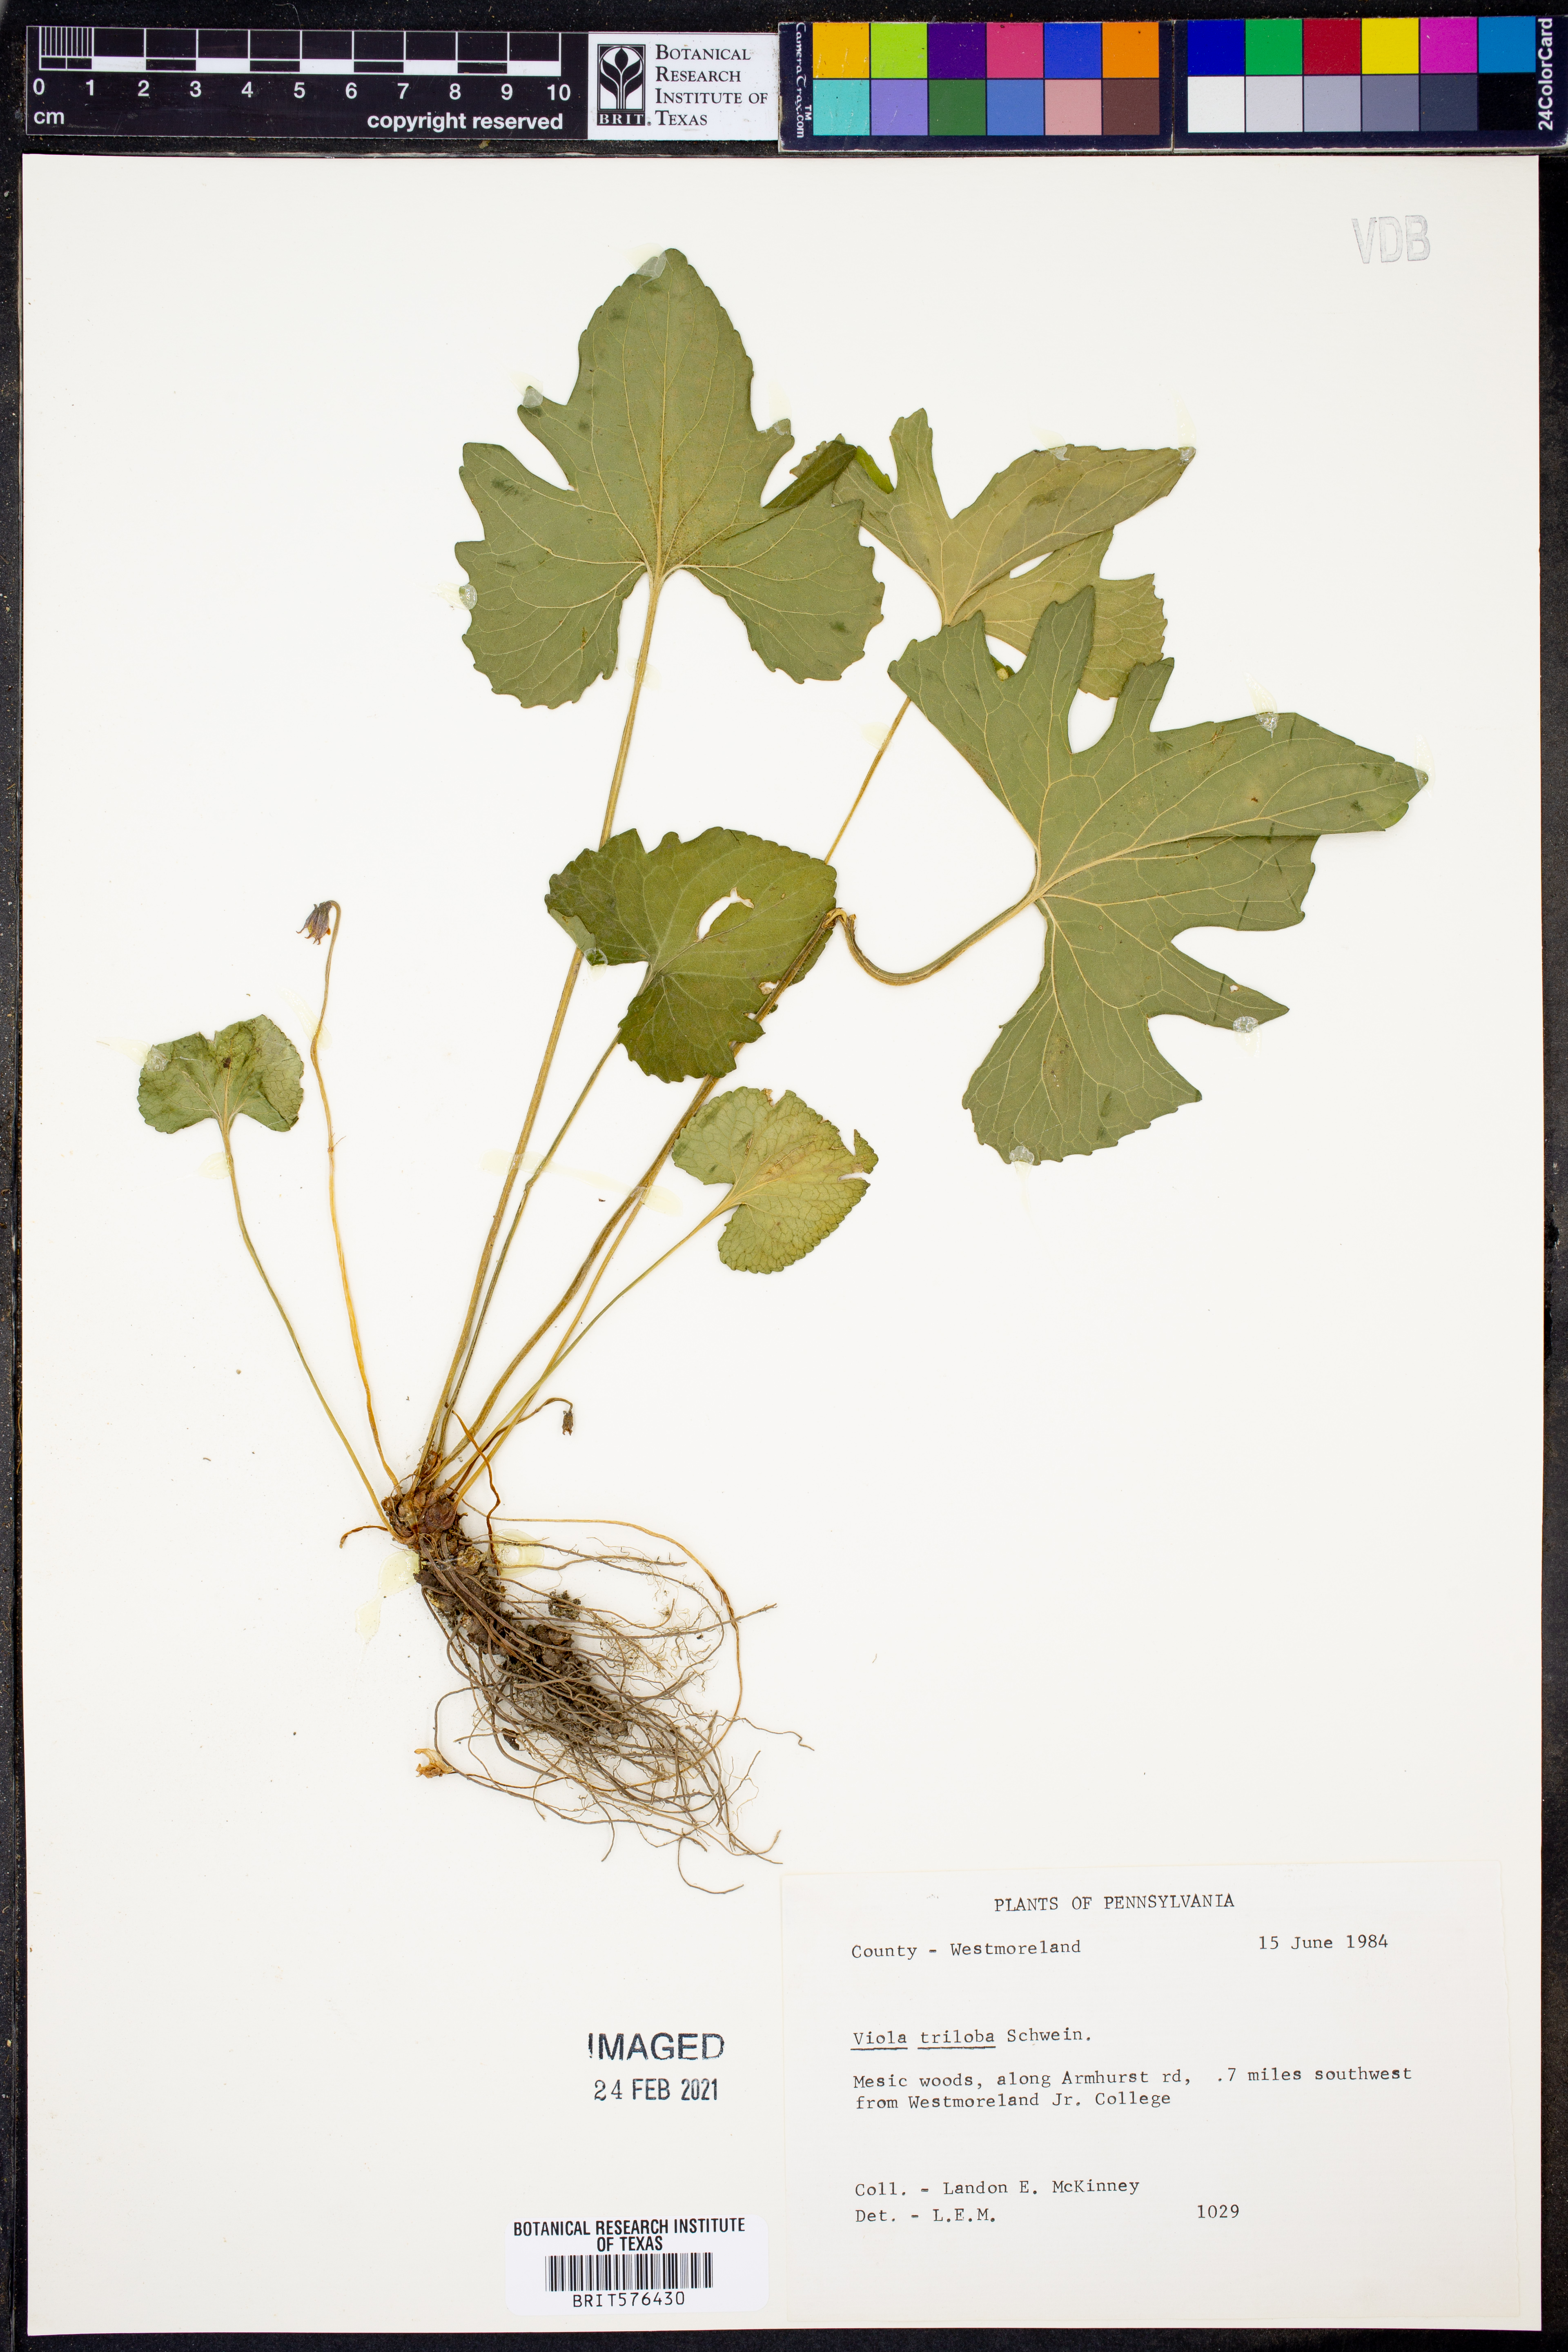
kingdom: Plantae
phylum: Tracheophyta
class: Magnoliopsida
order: Malpighiales
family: Violaceae
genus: Viola
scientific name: Viola palmata
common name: Early blue violet
